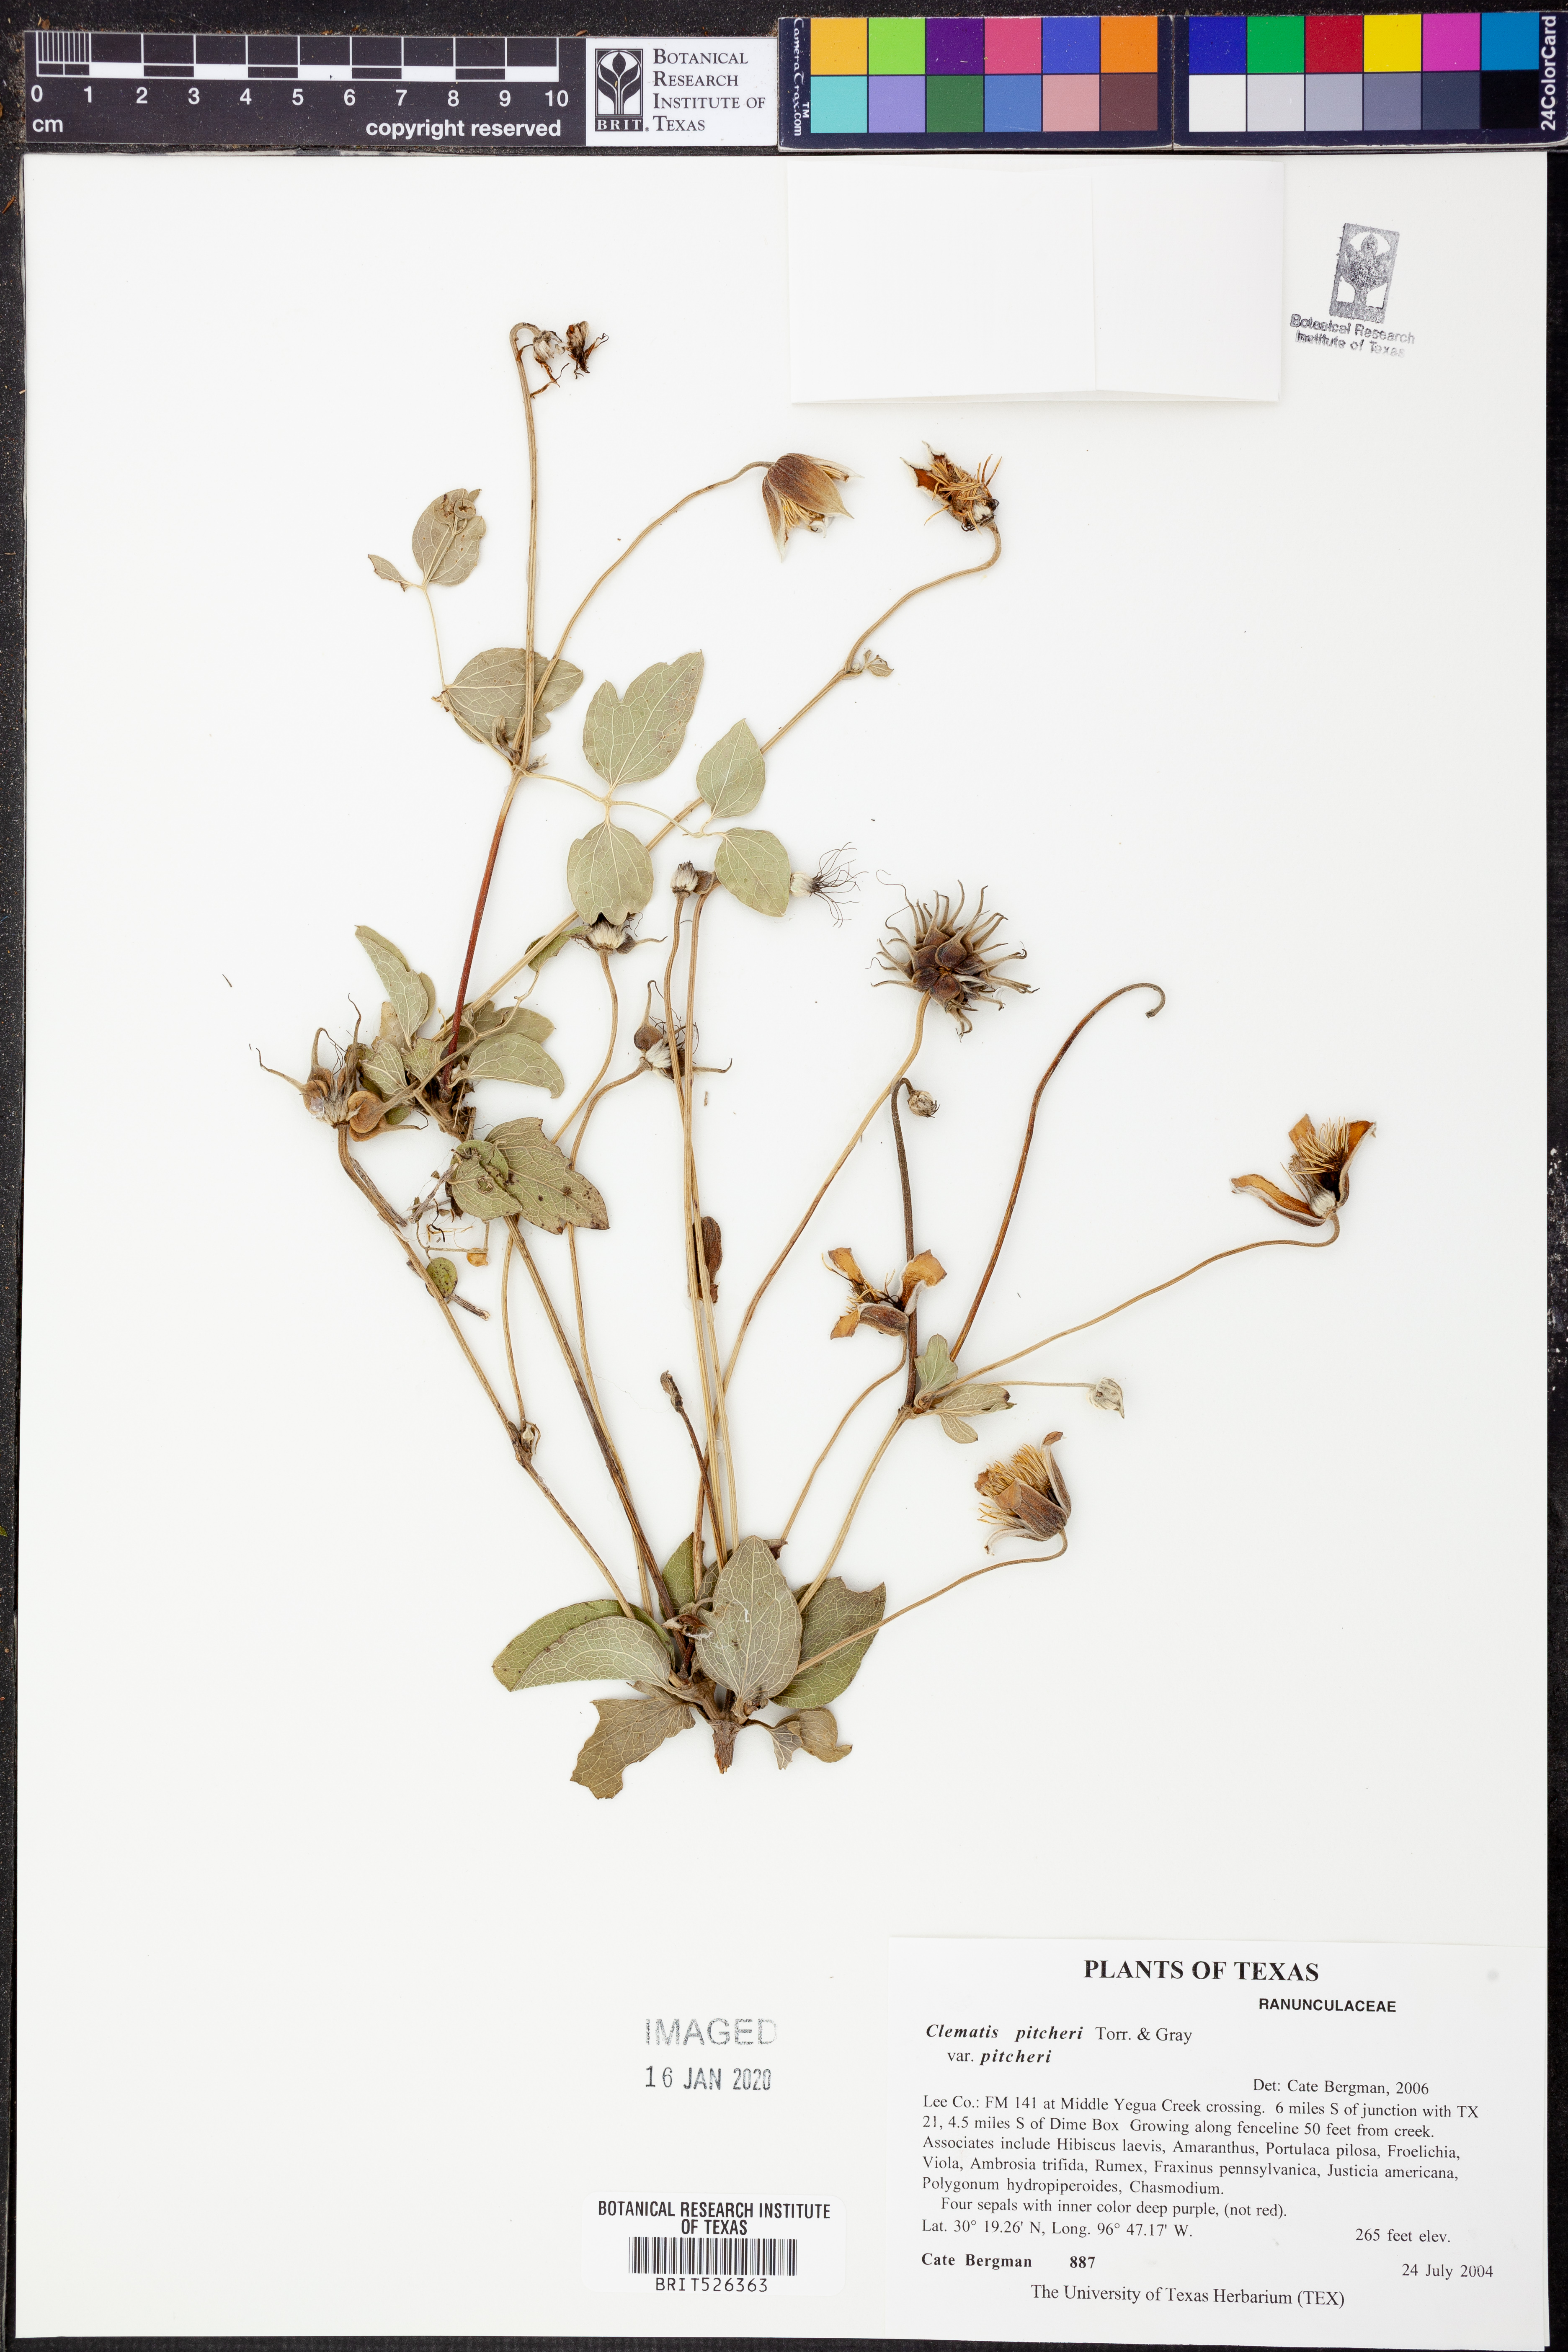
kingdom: Plantae
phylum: Tracheophyta
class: Magnoliopsida
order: Ranunculales
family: Ranunculaceae
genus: Clematis
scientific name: Clematis pitcheri
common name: Bellflower clematis
